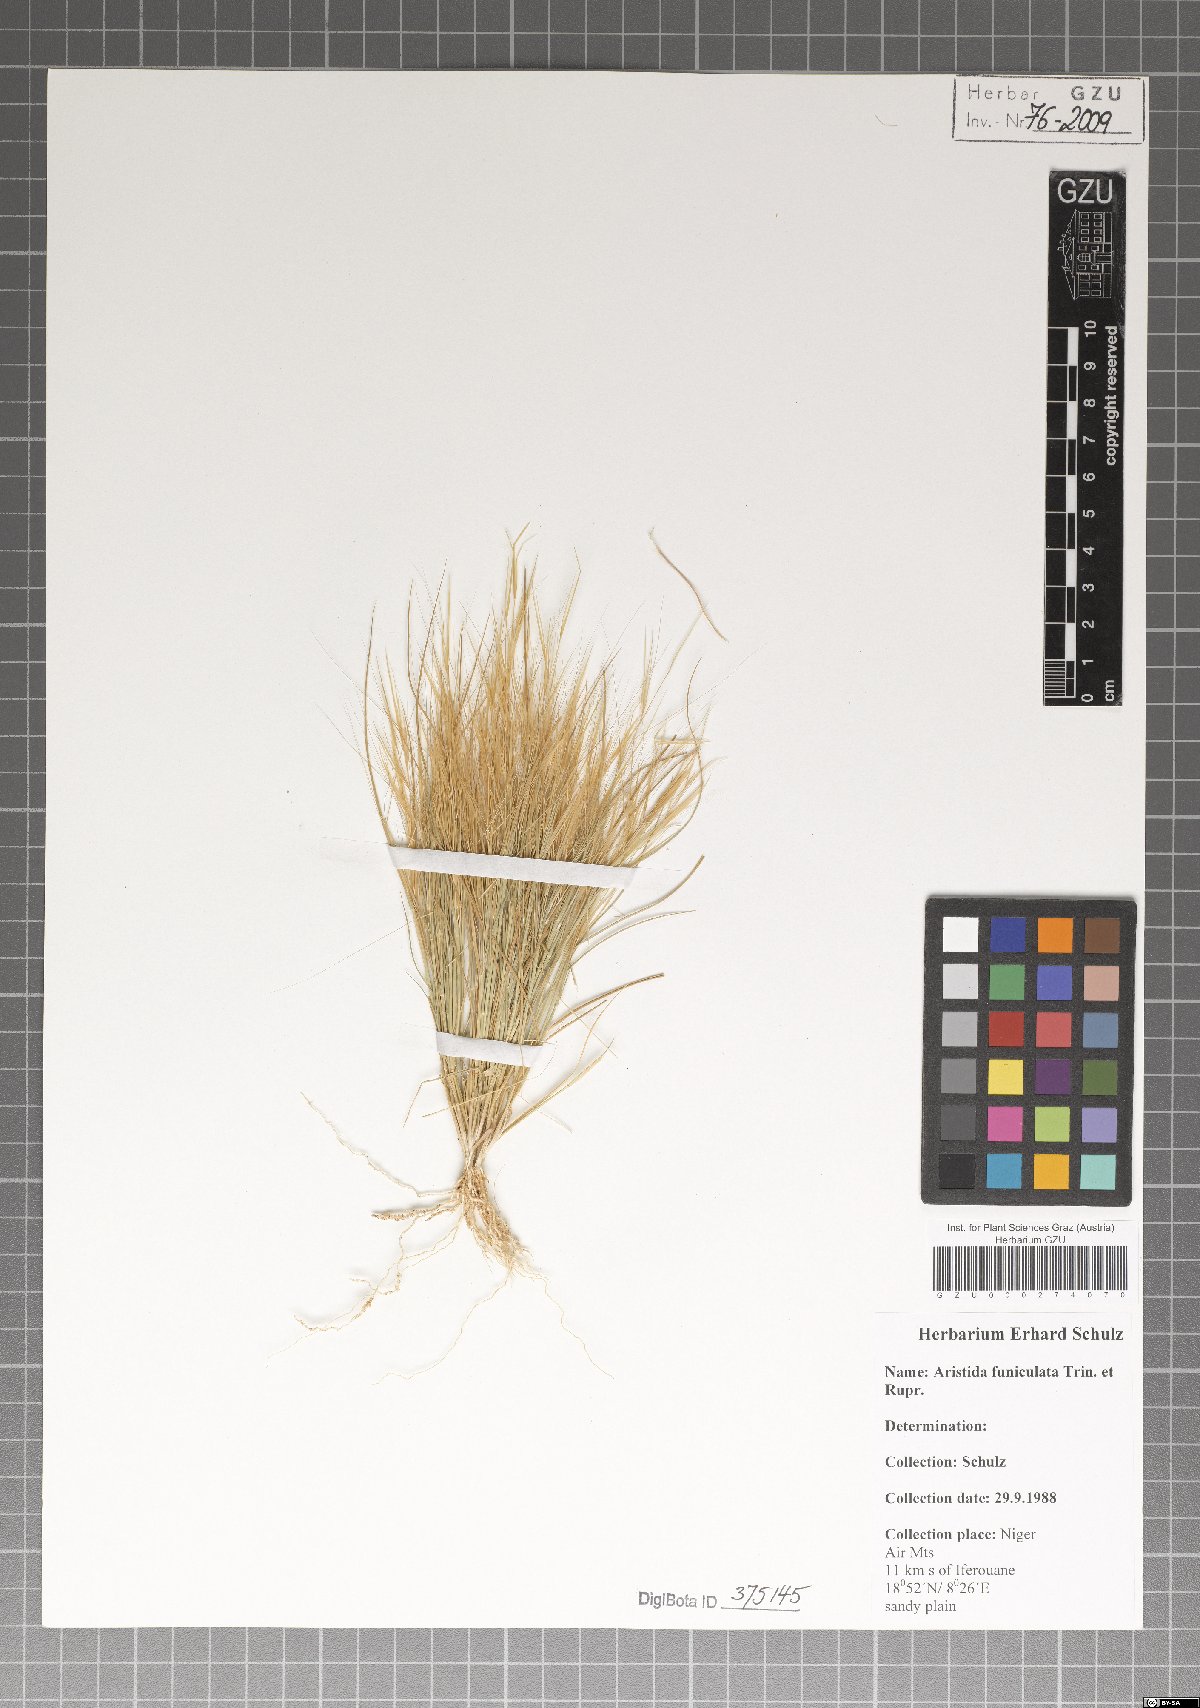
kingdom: Plantae
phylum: Tracheophyta
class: Liliopsida
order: Poales
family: Poaceae
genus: Aristida
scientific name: Aristida adscensionis
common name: Sixweeks threeawn
